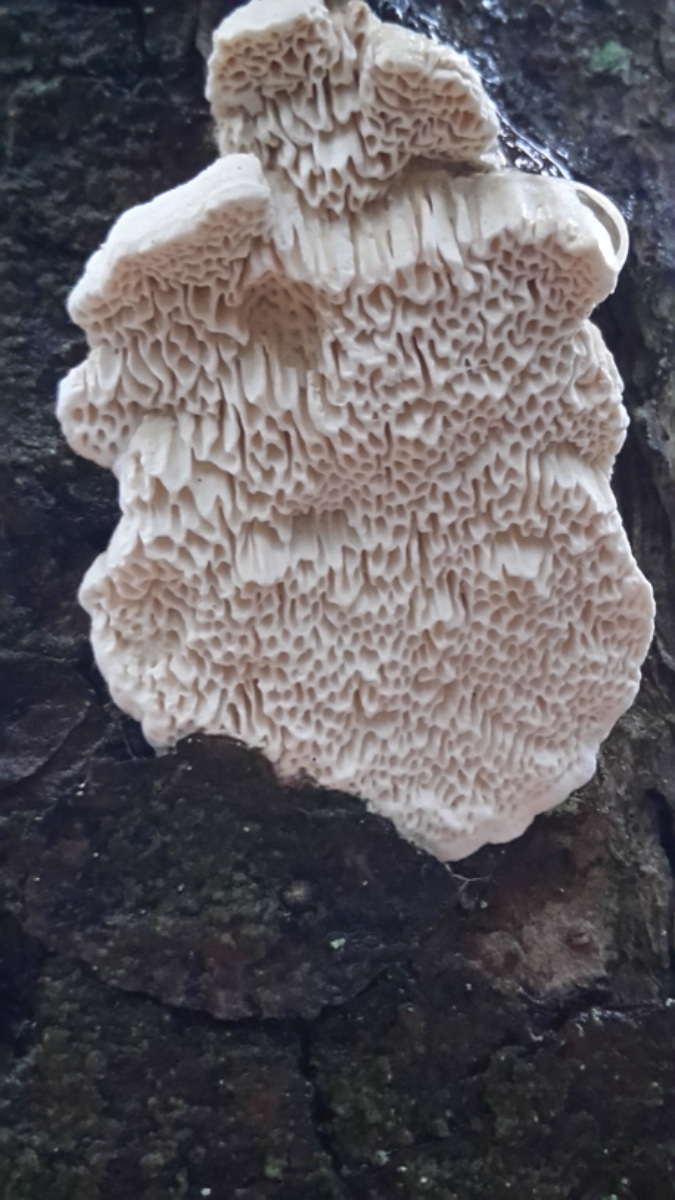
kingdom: Fungi
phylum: Basidiomycota
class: Agaricomycetes
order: Polyporales
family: Fomitopsidaceae
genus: Fomitopsis
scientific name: Fomitopsis
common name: fyrre-skiveporesvamp
